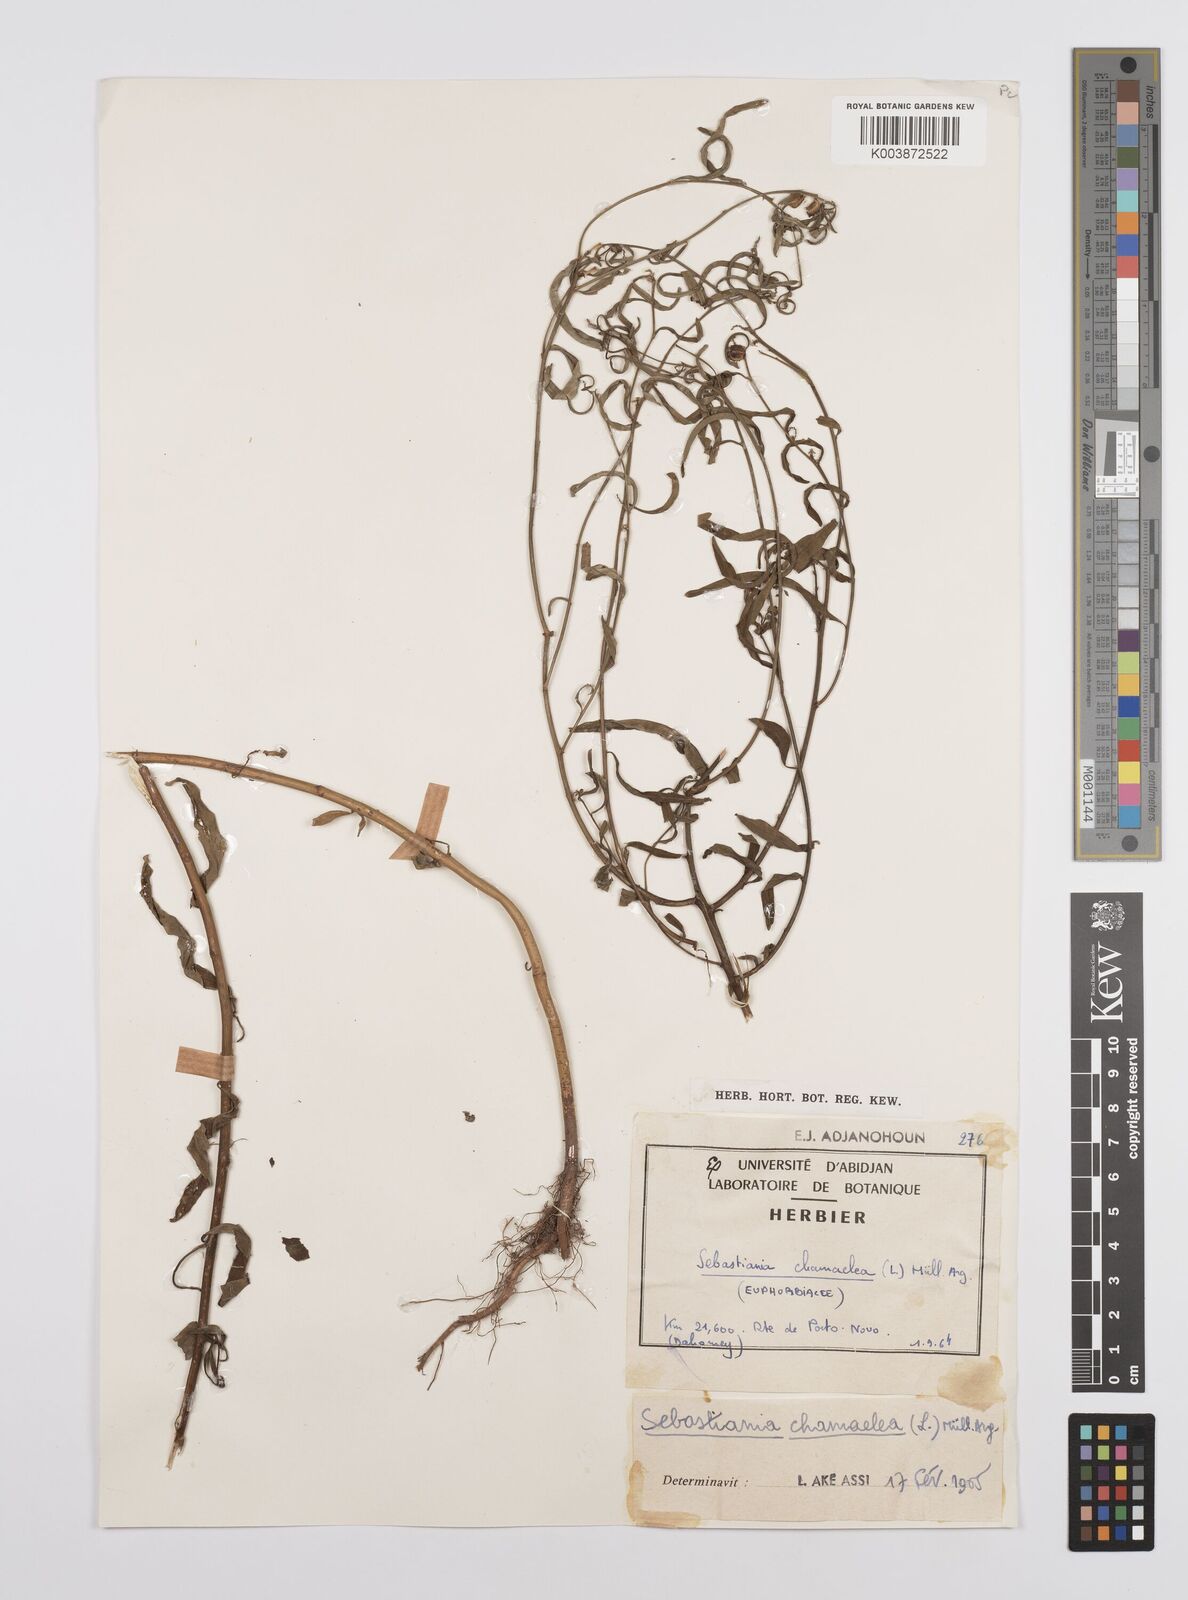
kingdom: Plantae
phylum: Tracheophyta
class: Magnoliopsida
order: Malpighiales
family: Euphorbiaceae
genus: Microstachys
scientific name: Microstachys chamaelea
